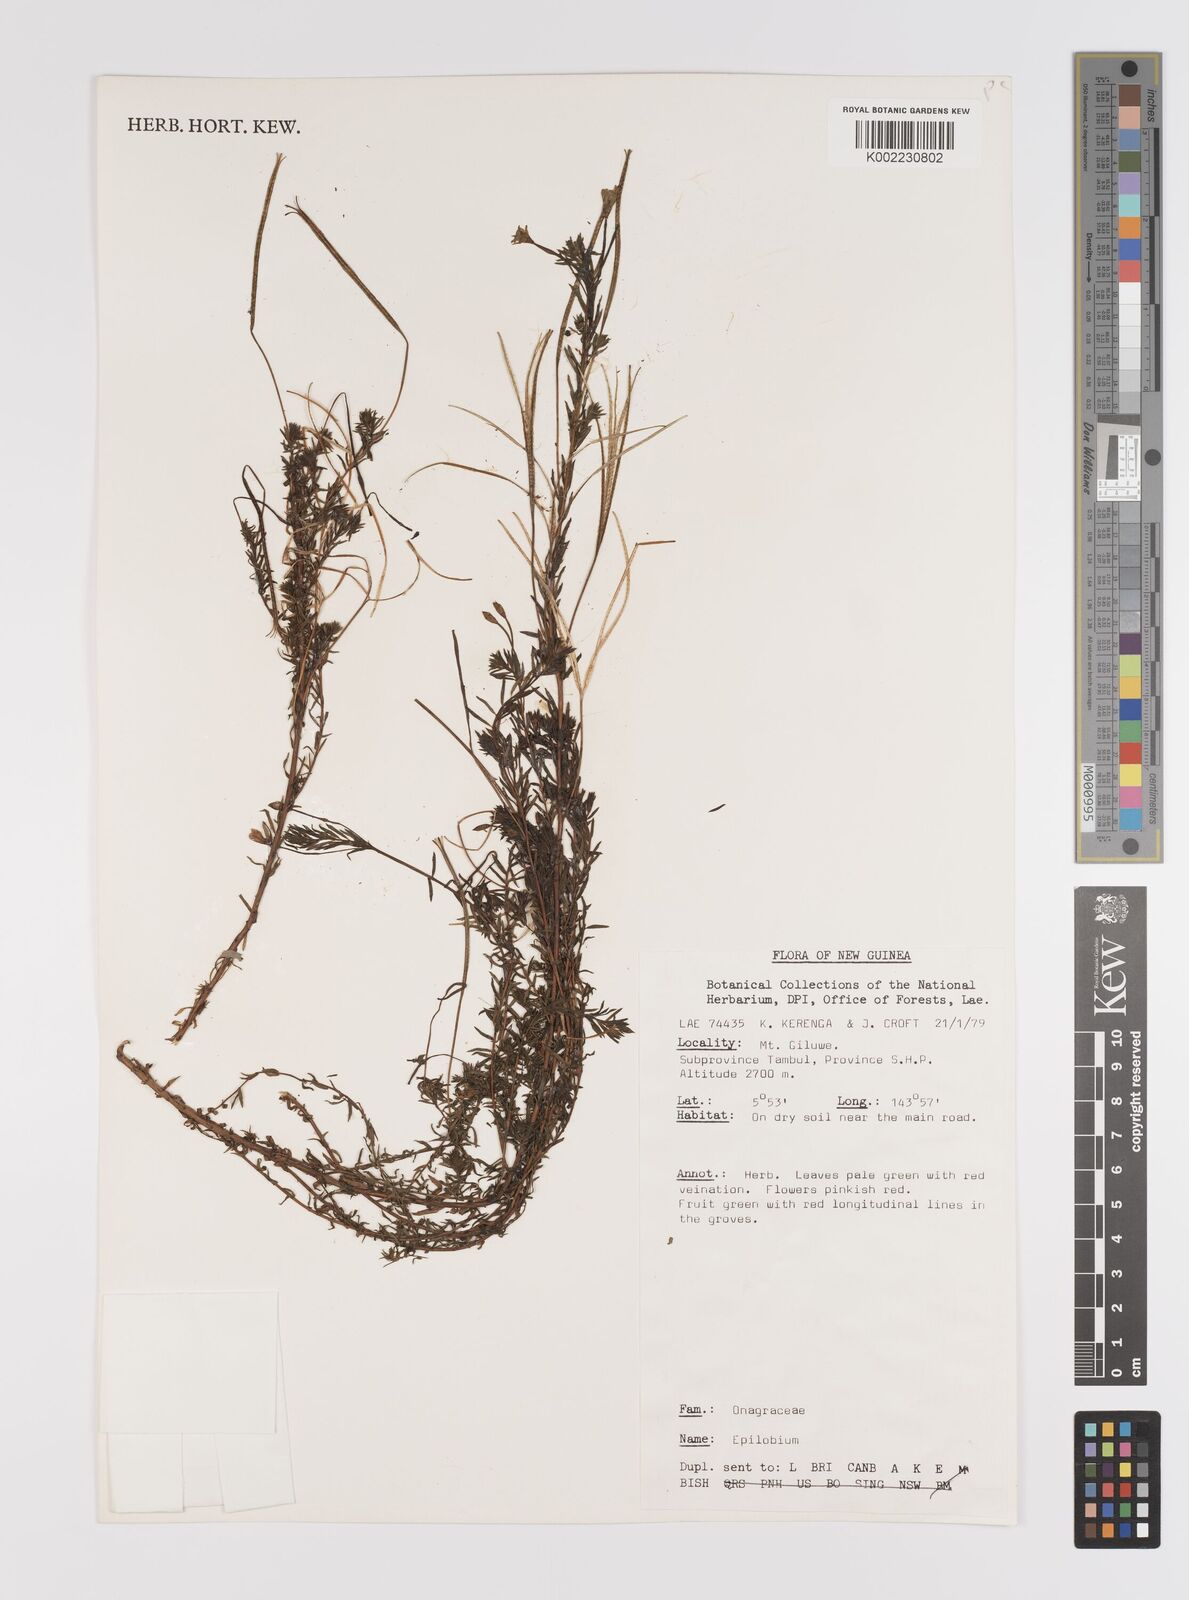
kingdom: Plantae
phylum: Tracheophyta
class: Magnoliopsida
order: Myrtales
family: Onagraceae
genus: Epilobium
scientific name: Epilobium
